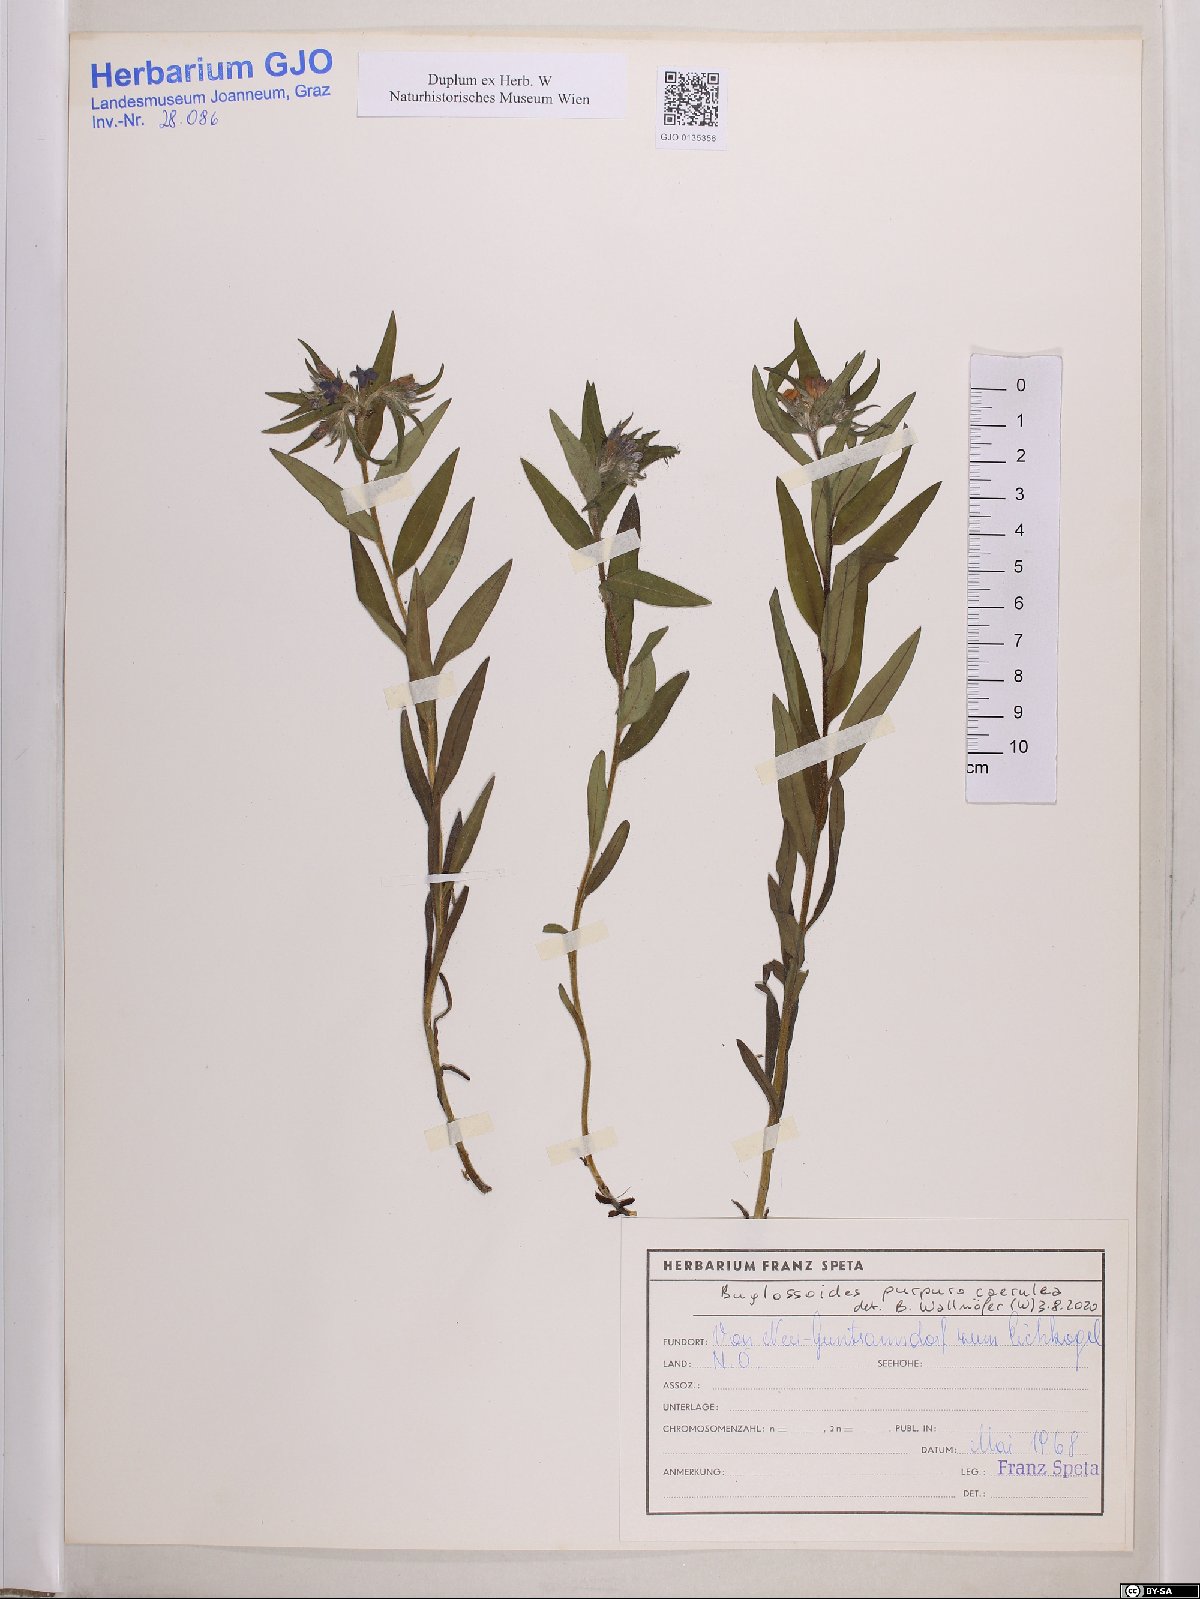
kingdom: Plantae
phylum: Tracheophyta
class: Magnoliopsida
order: Boraginales
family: Boraginaceae
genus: Aegonychon
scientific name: Aegonychon purpurocaeruleum
